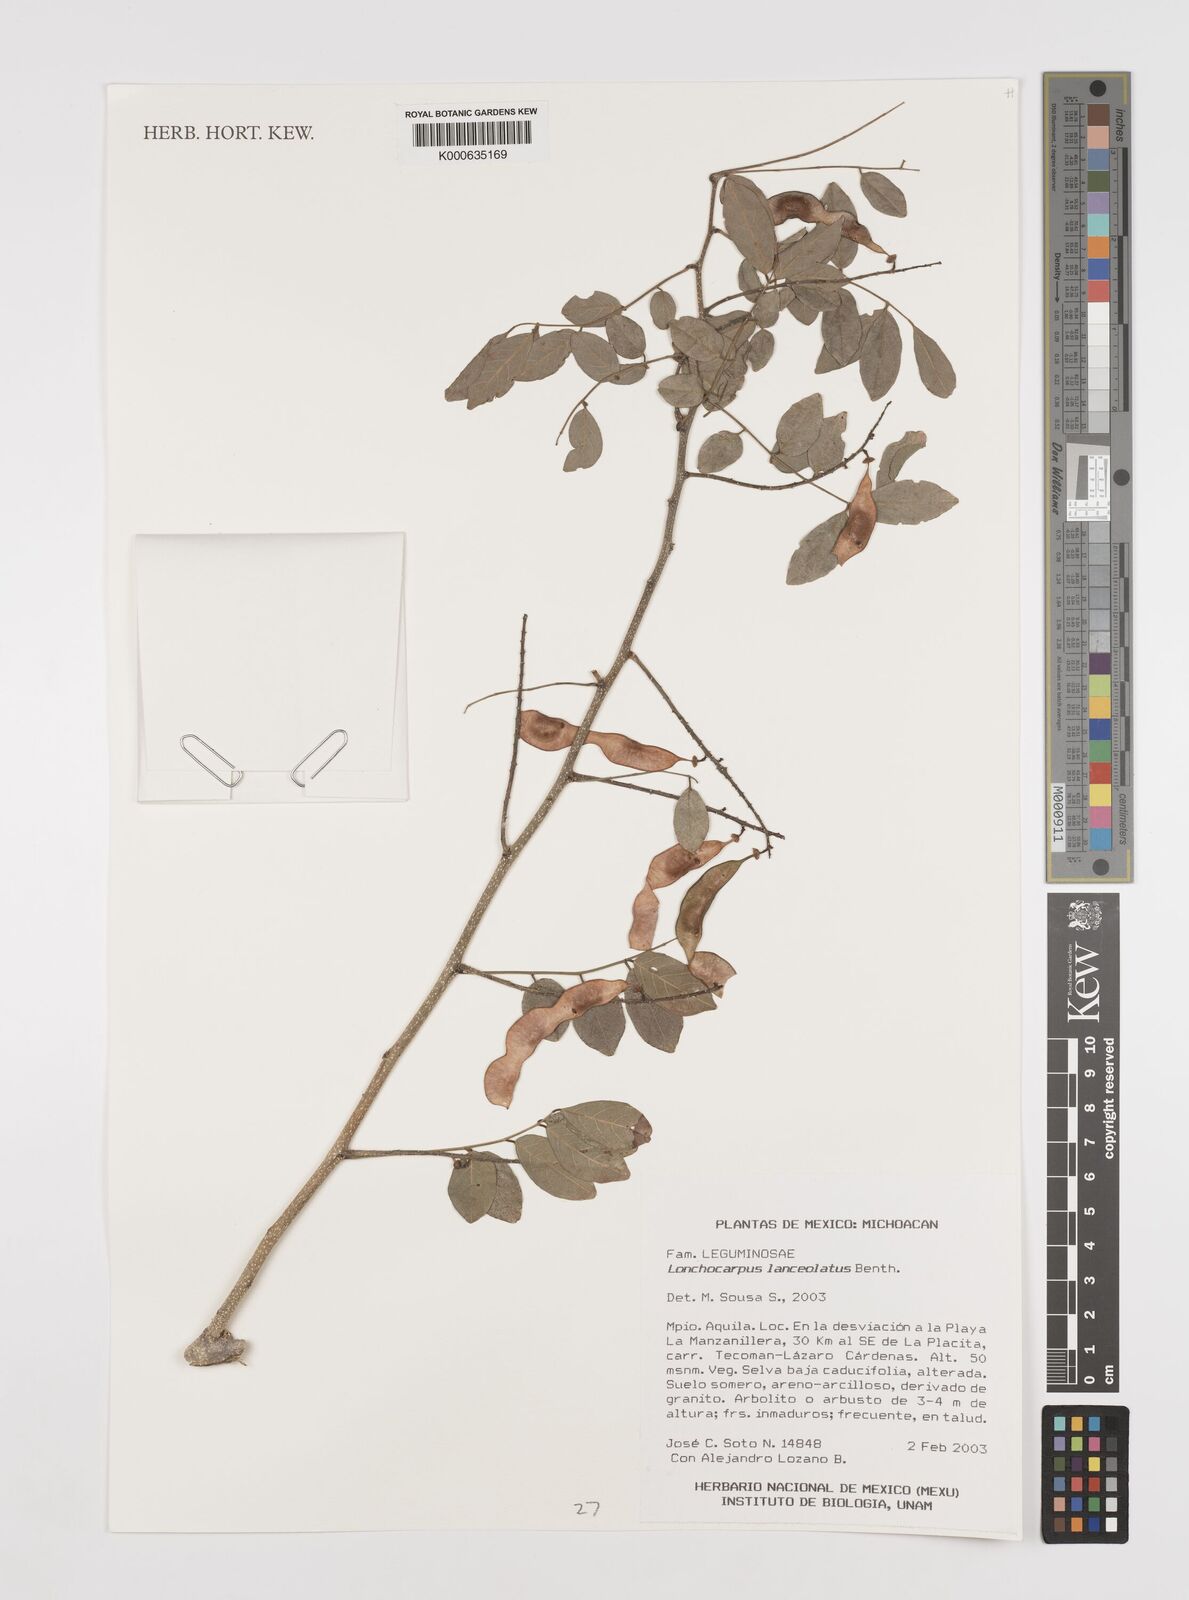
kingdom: Plantae
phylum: Tracheophyta
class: Magnoliopsida
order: Fabales
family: Fabaceae
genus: Lonchocarpus
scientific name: Lonchocarpus lanceolatus
